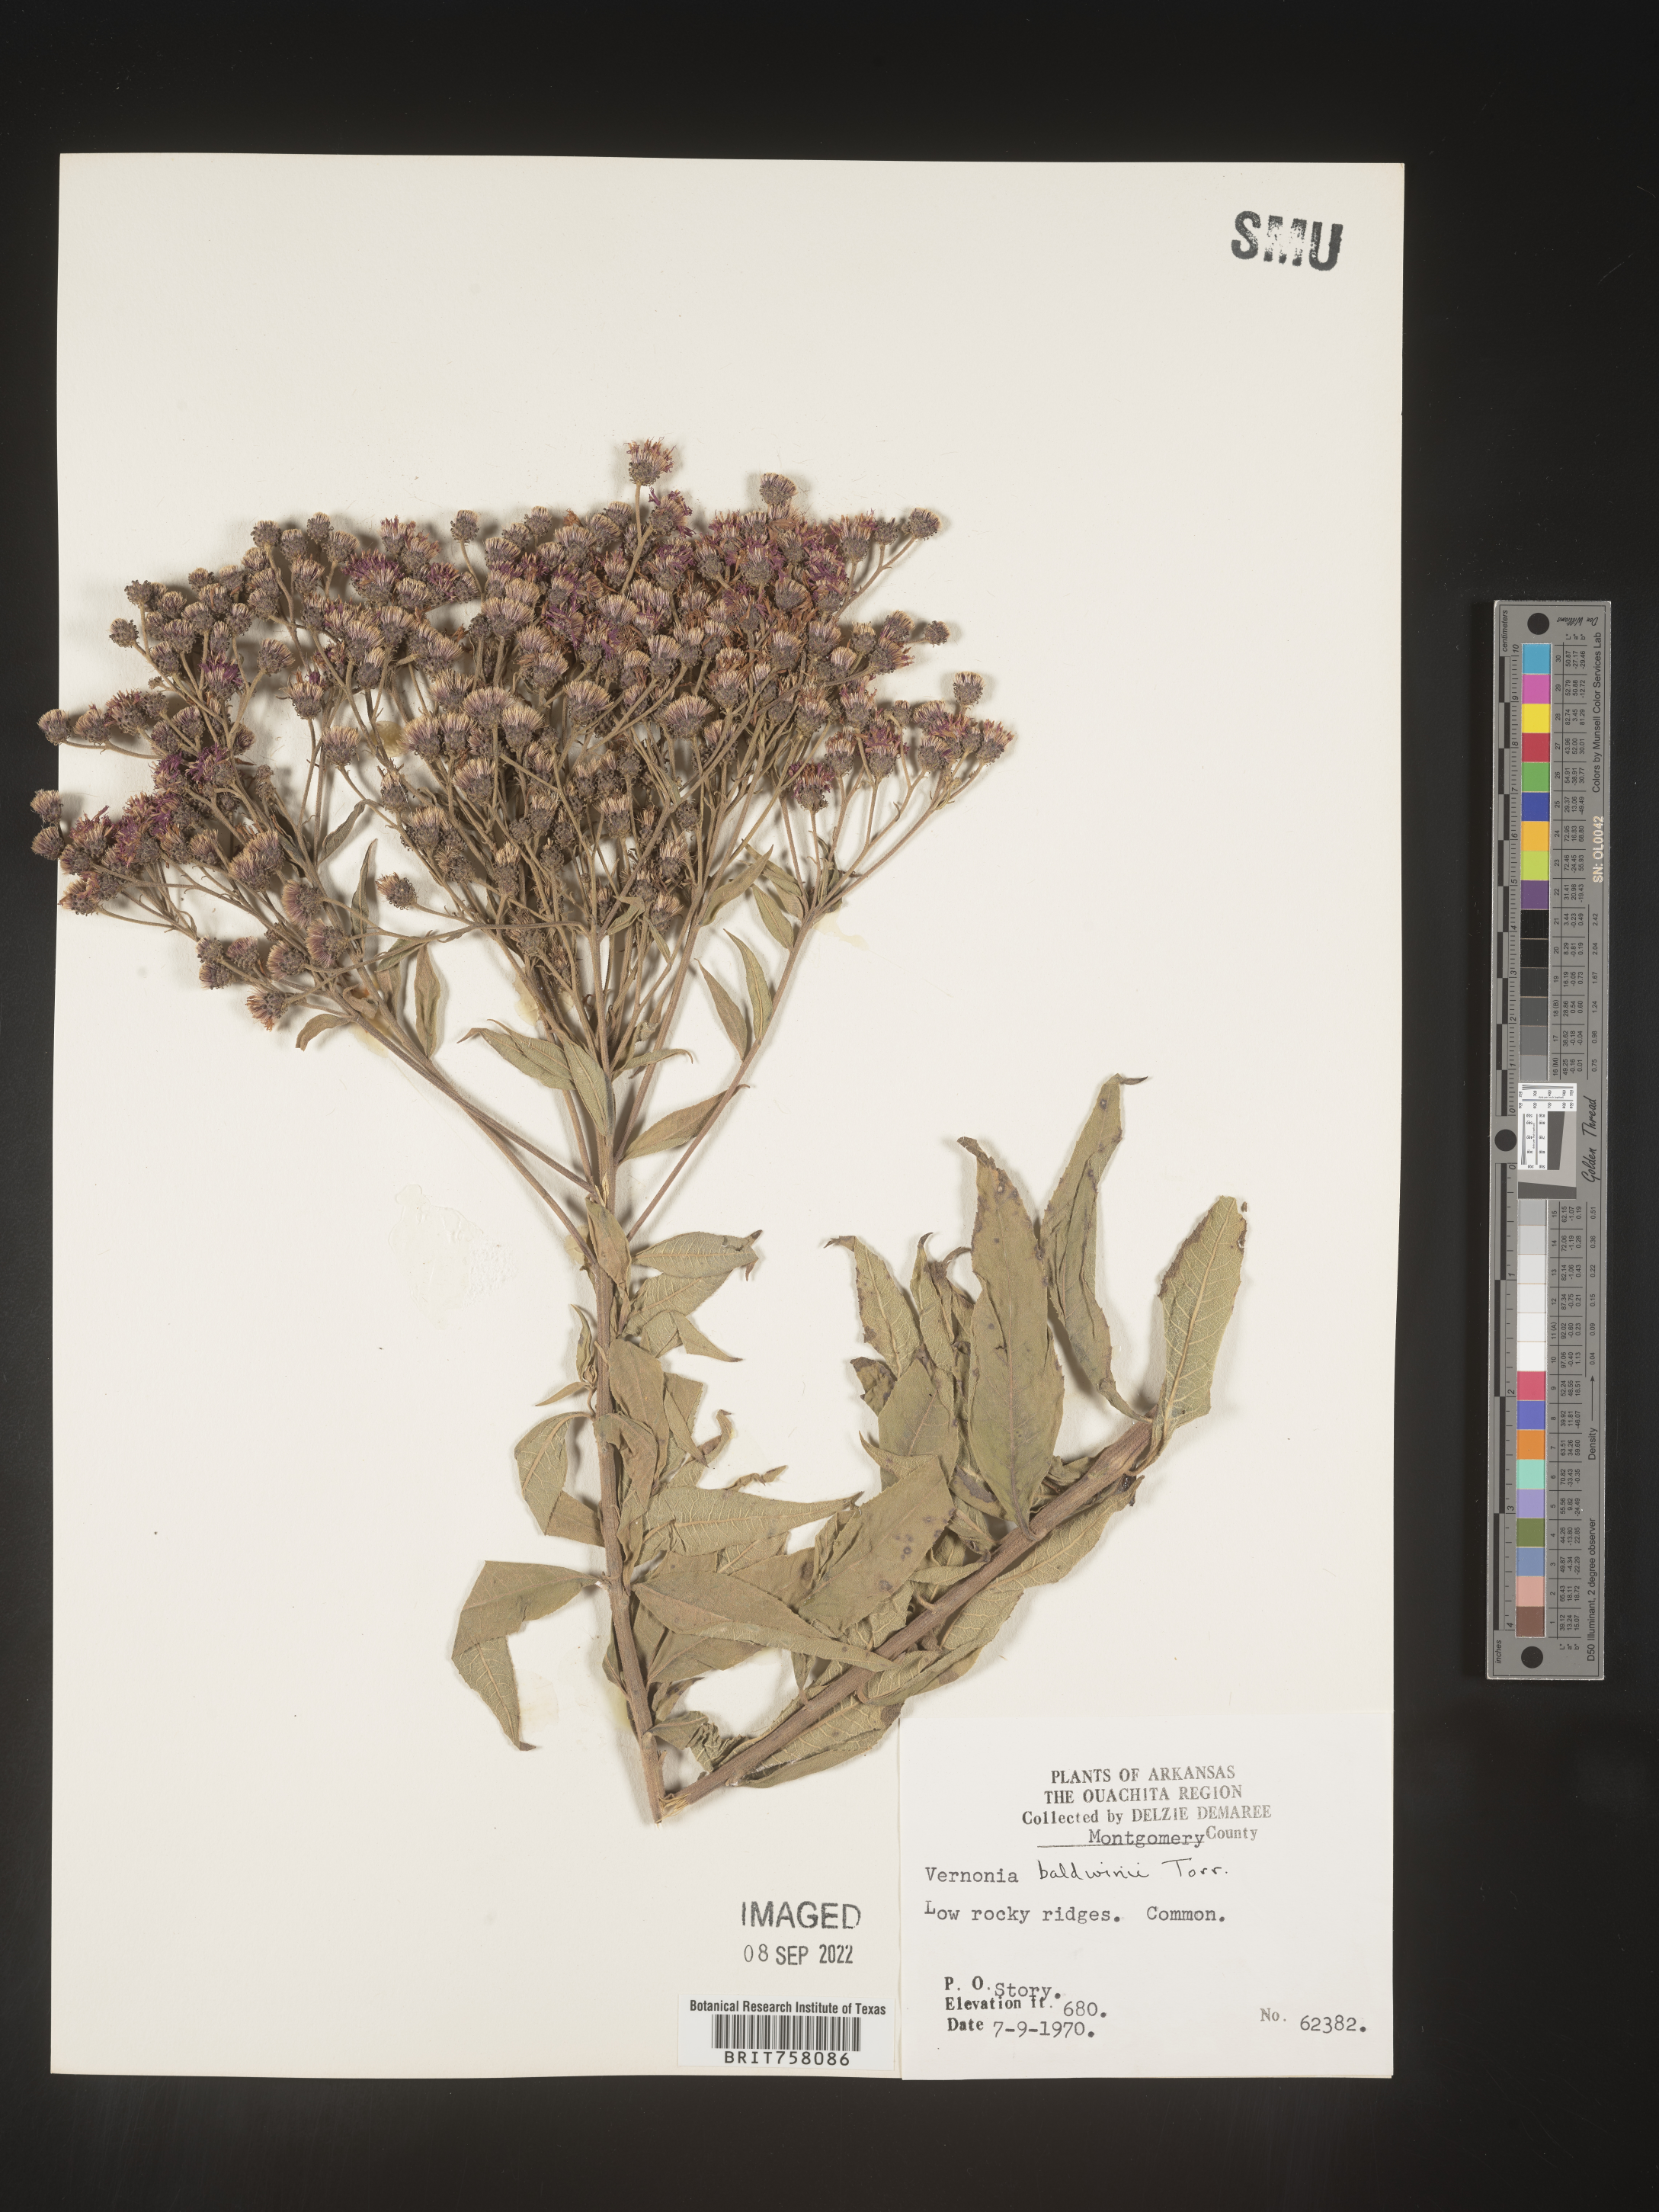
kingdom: Plantae
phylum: Tracheophyta
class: Magnoliopsida
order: Asterales
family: Asteraceae
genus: Vernonia
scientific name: Vernonia baldwinii
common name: Western ironweed
